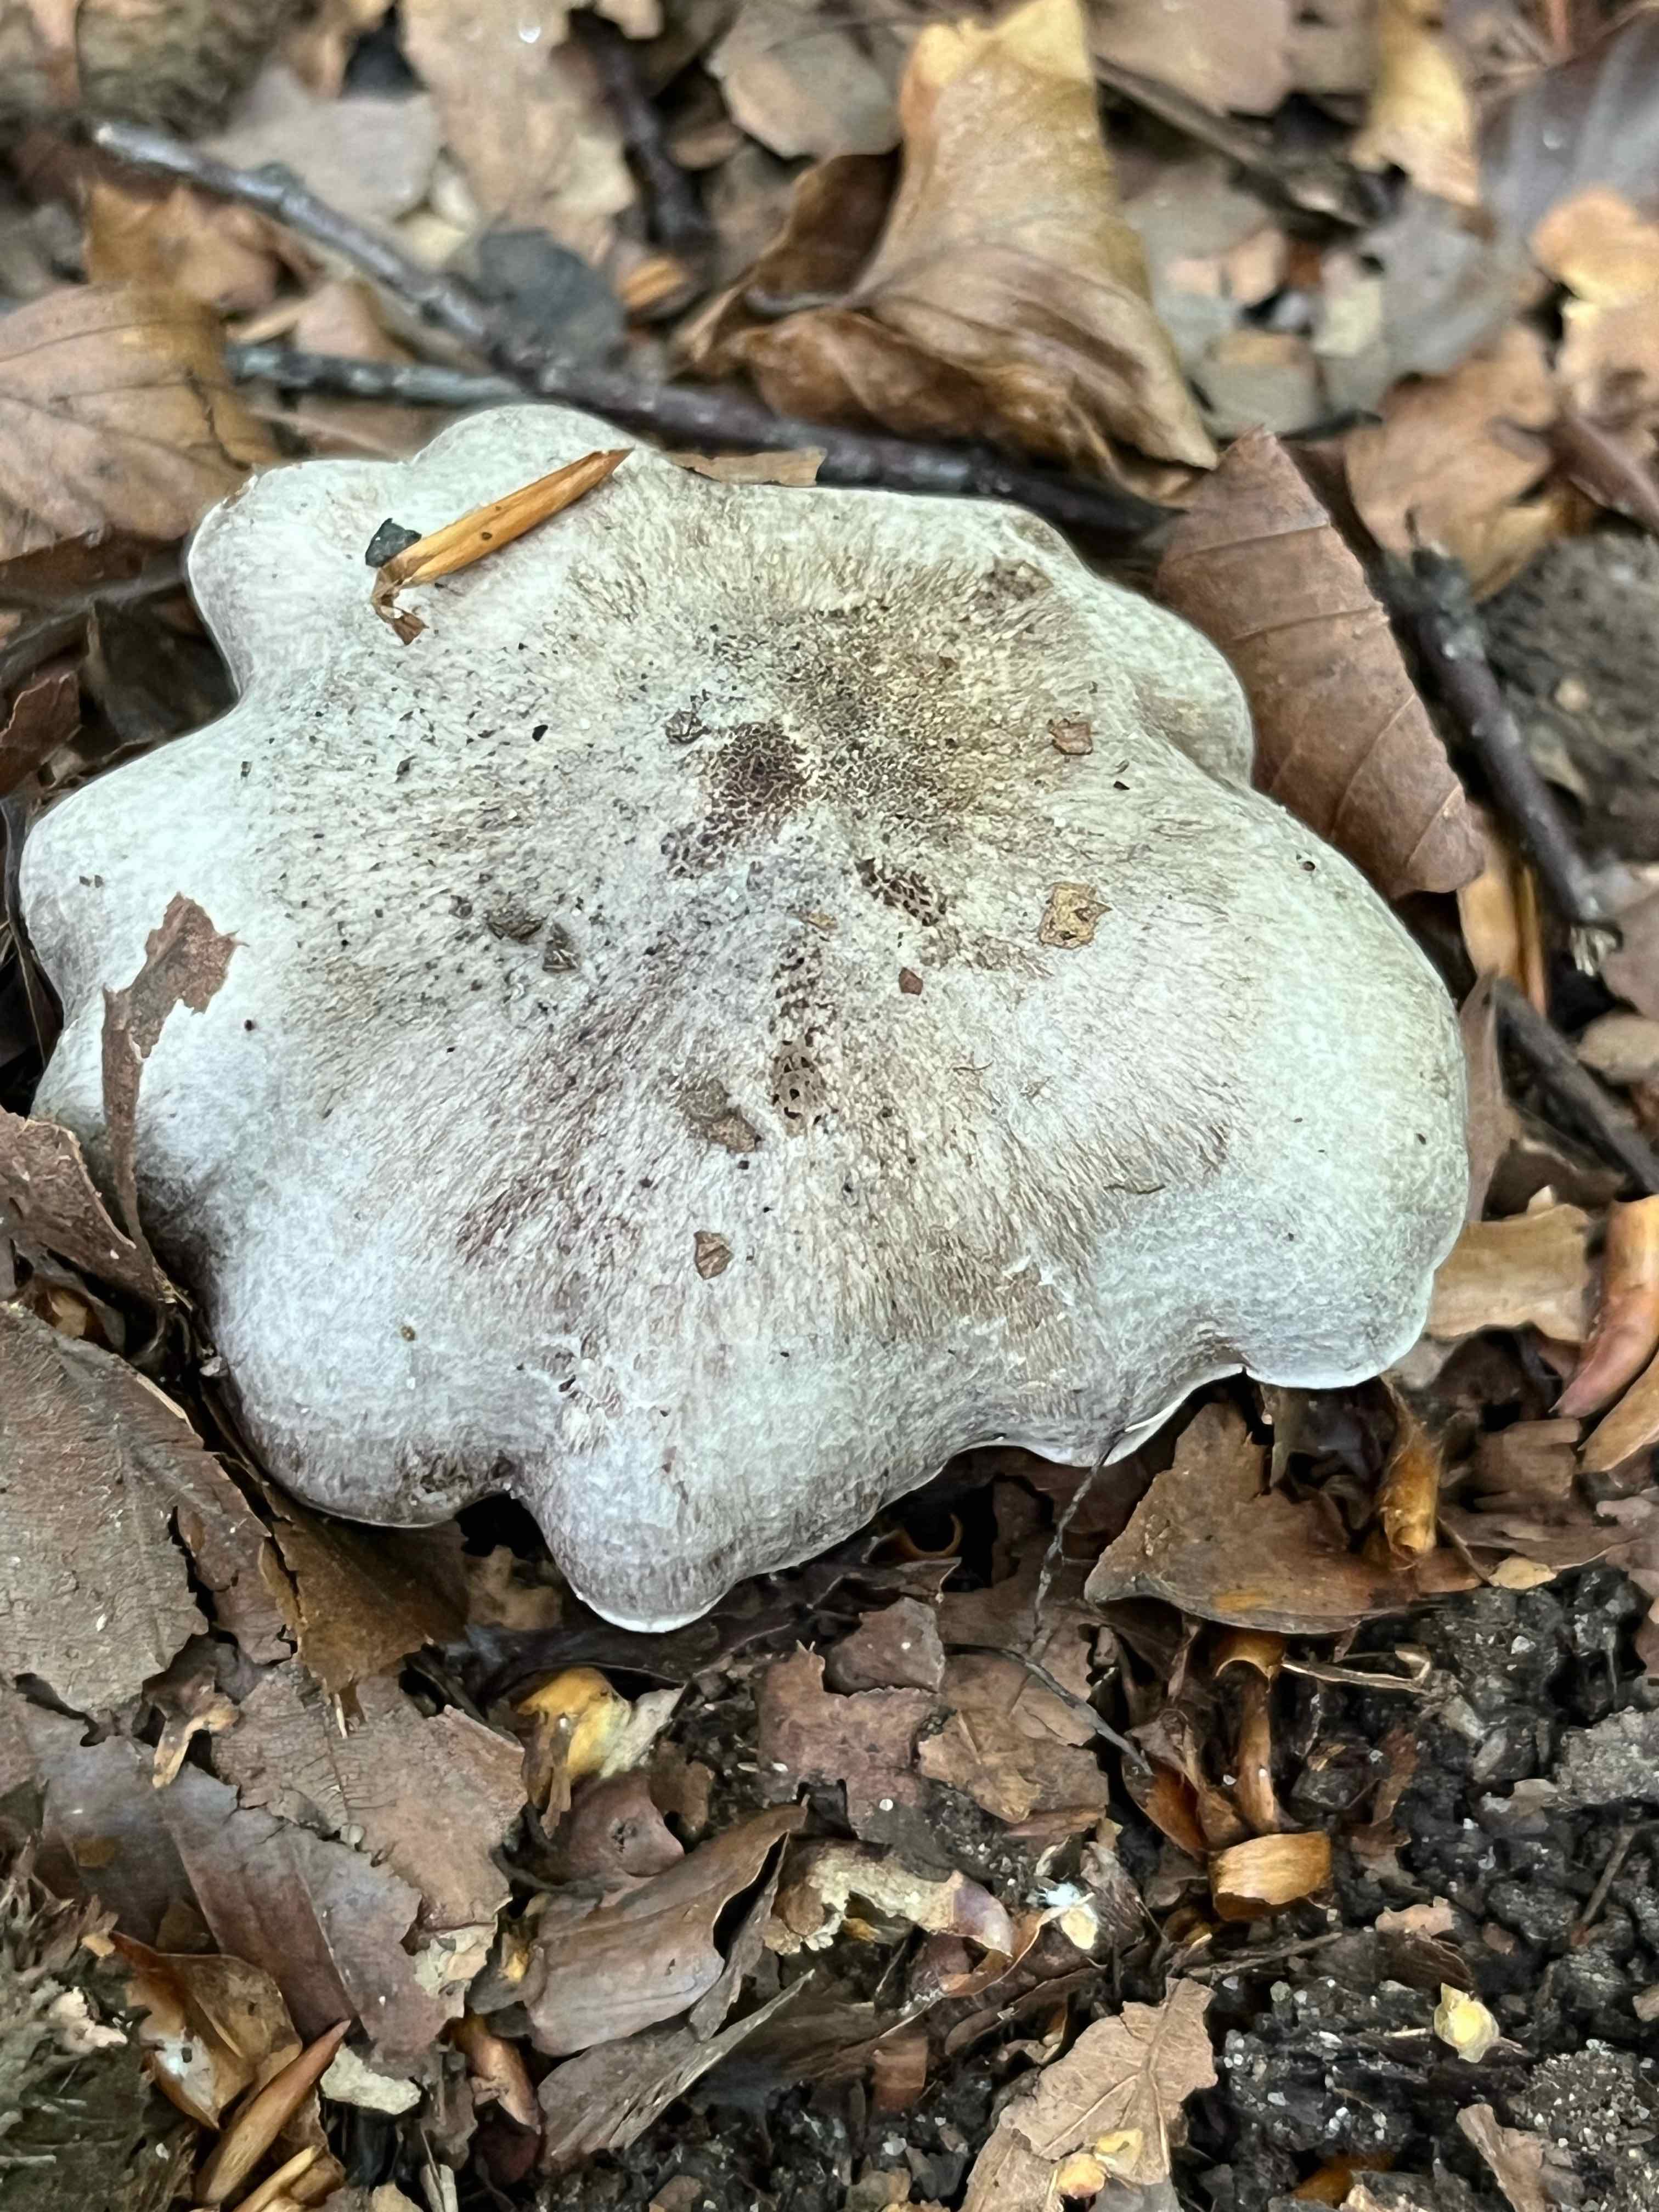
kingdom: Fungi
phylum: Basidiomycota
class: Agaricomycetes
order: Agaricales
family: Tricholomataceae
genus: Tricholoma
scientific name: Tricholoma sciodes
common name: stribet ridderhat
